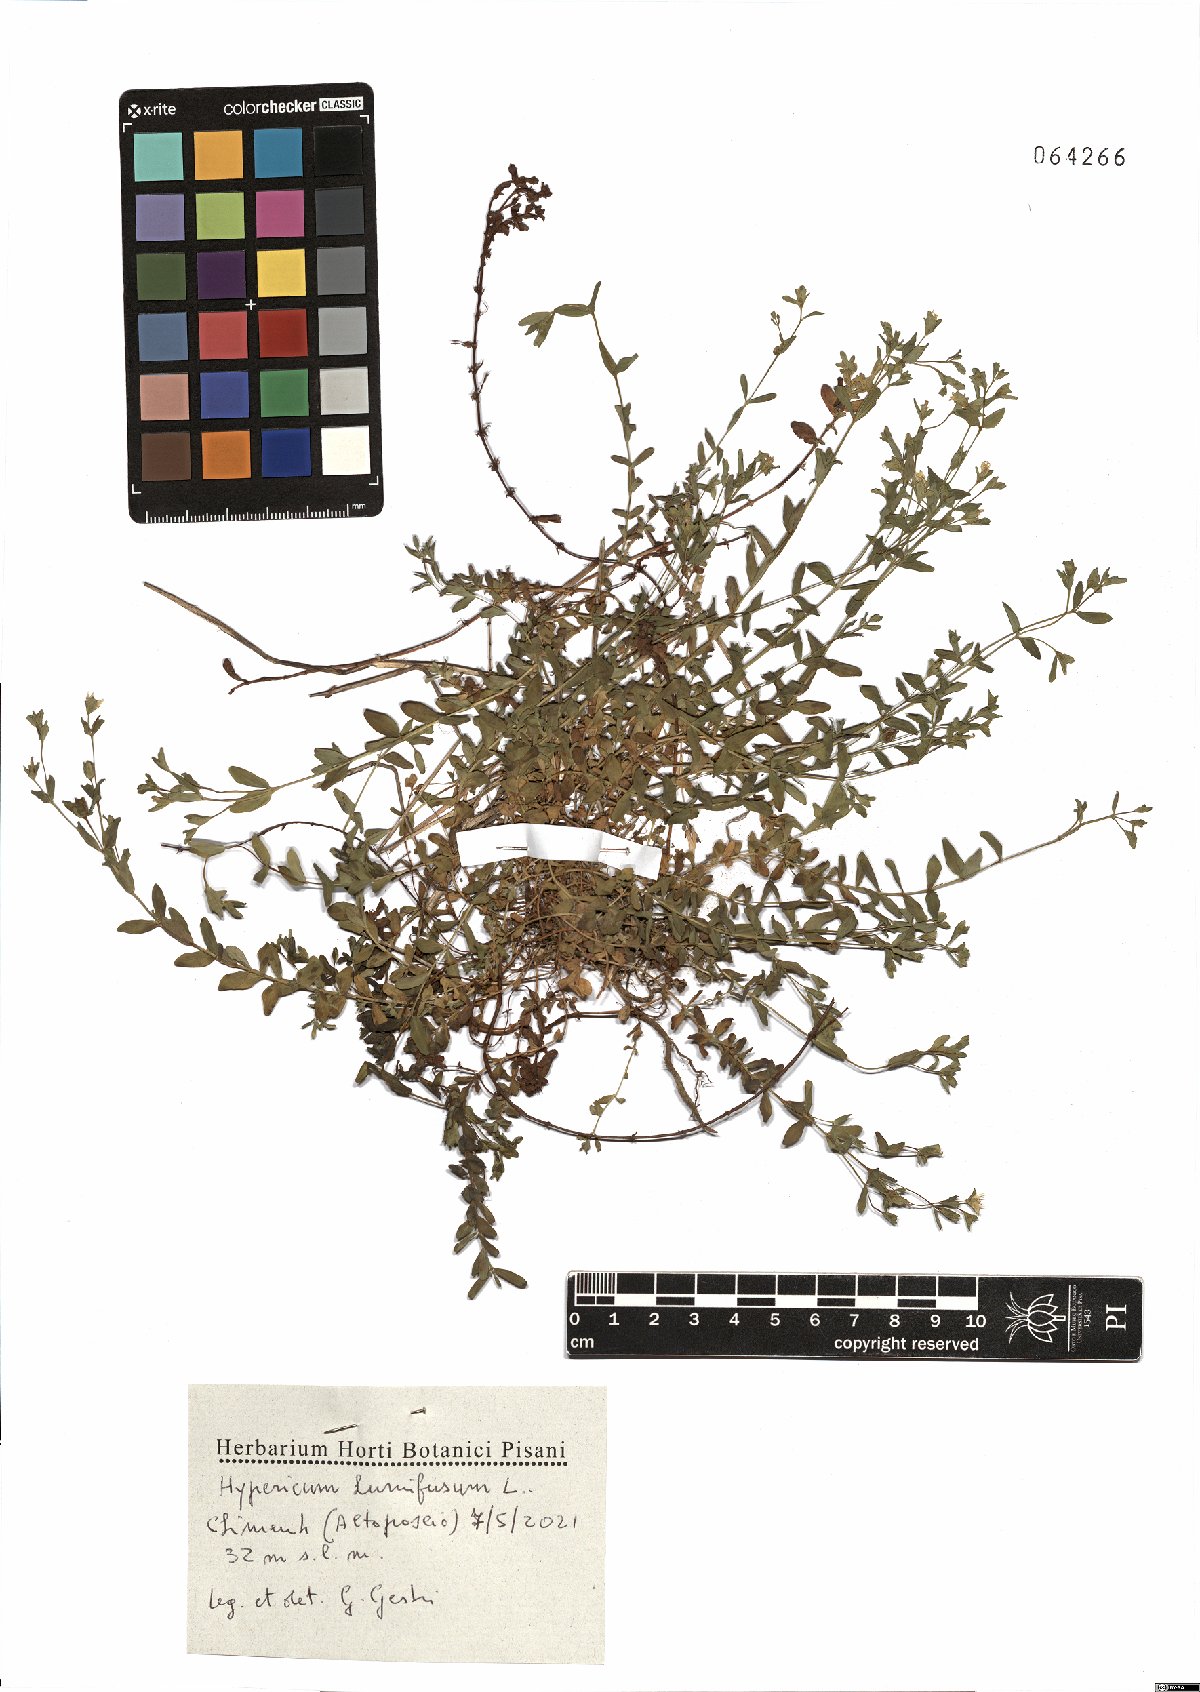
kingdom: Plantae
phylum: Tracheophyta
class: Magnoliopsida
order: Malpighiales
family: Hypericaceae
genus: Hypericum
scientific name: Hypericum humifusum
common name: Trailing st. john's-wort
